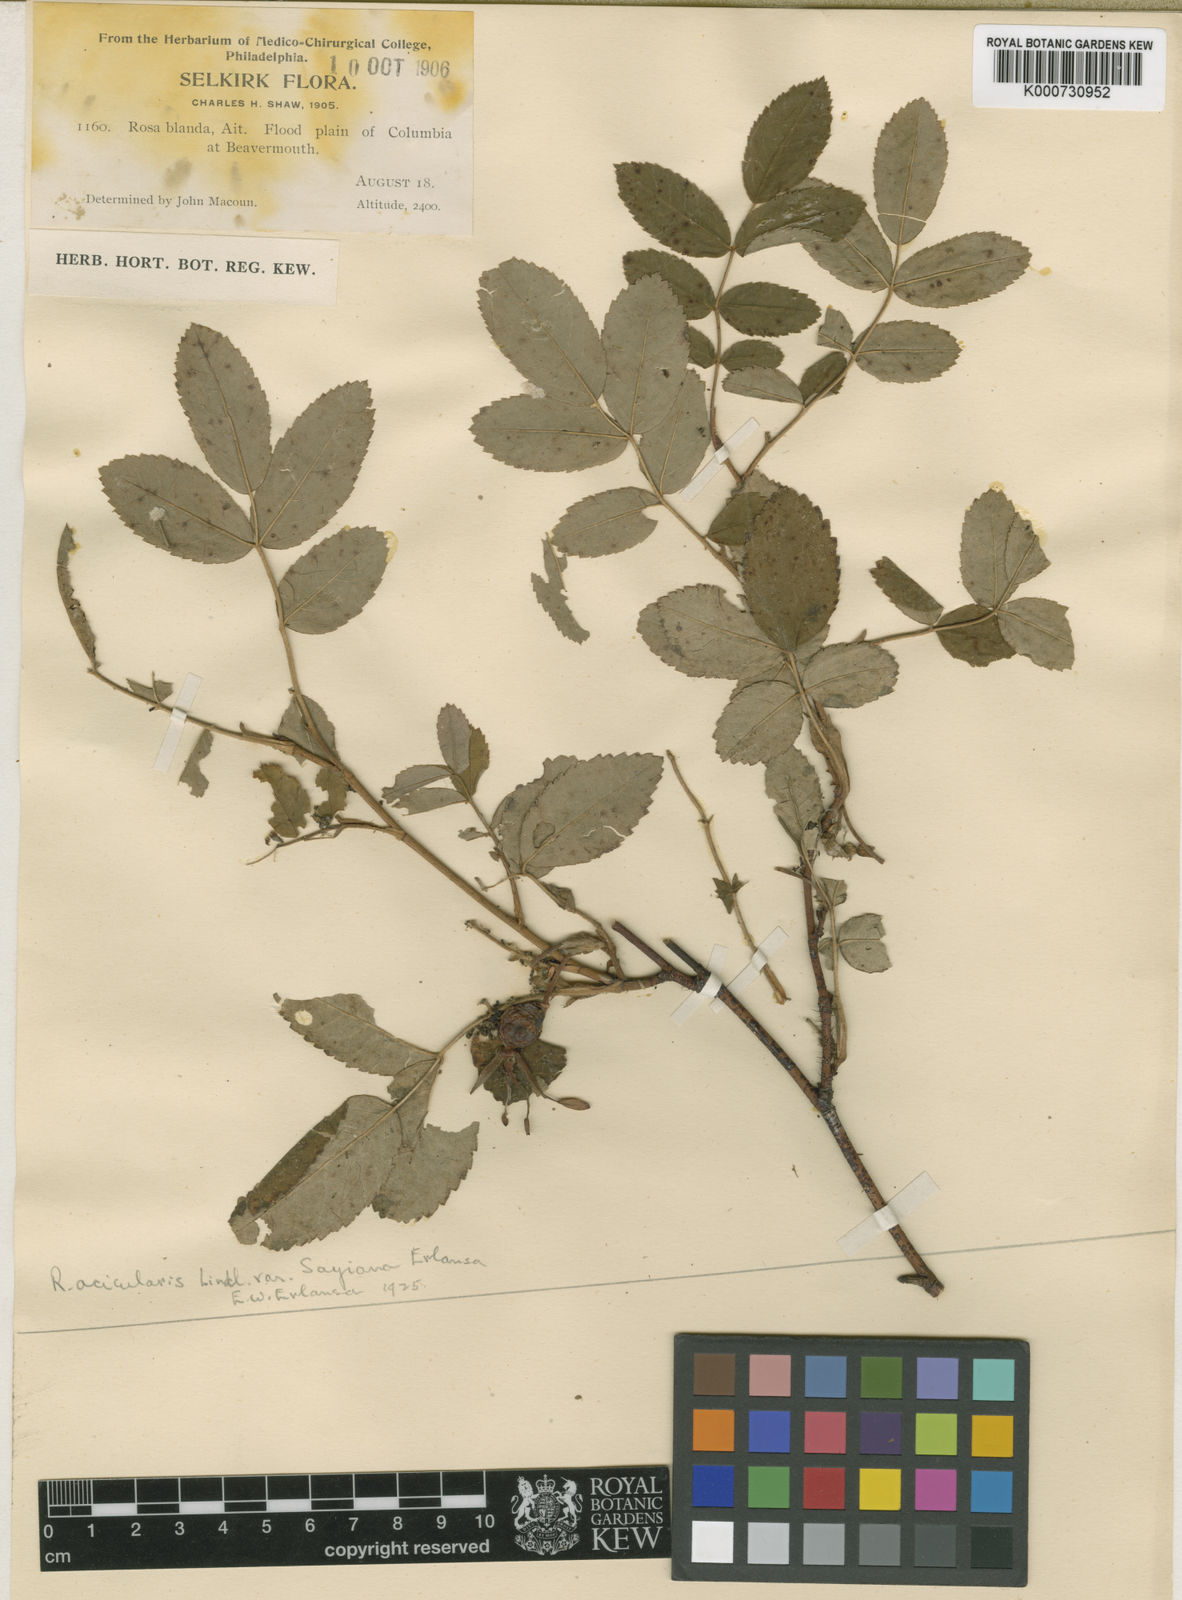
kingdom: Plantae
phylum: Tracheophyta
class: Magnoliopsida
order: Rosales
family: Rosaceae
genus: Rosa
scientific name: Rosa acicularis
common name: Prickly rose
